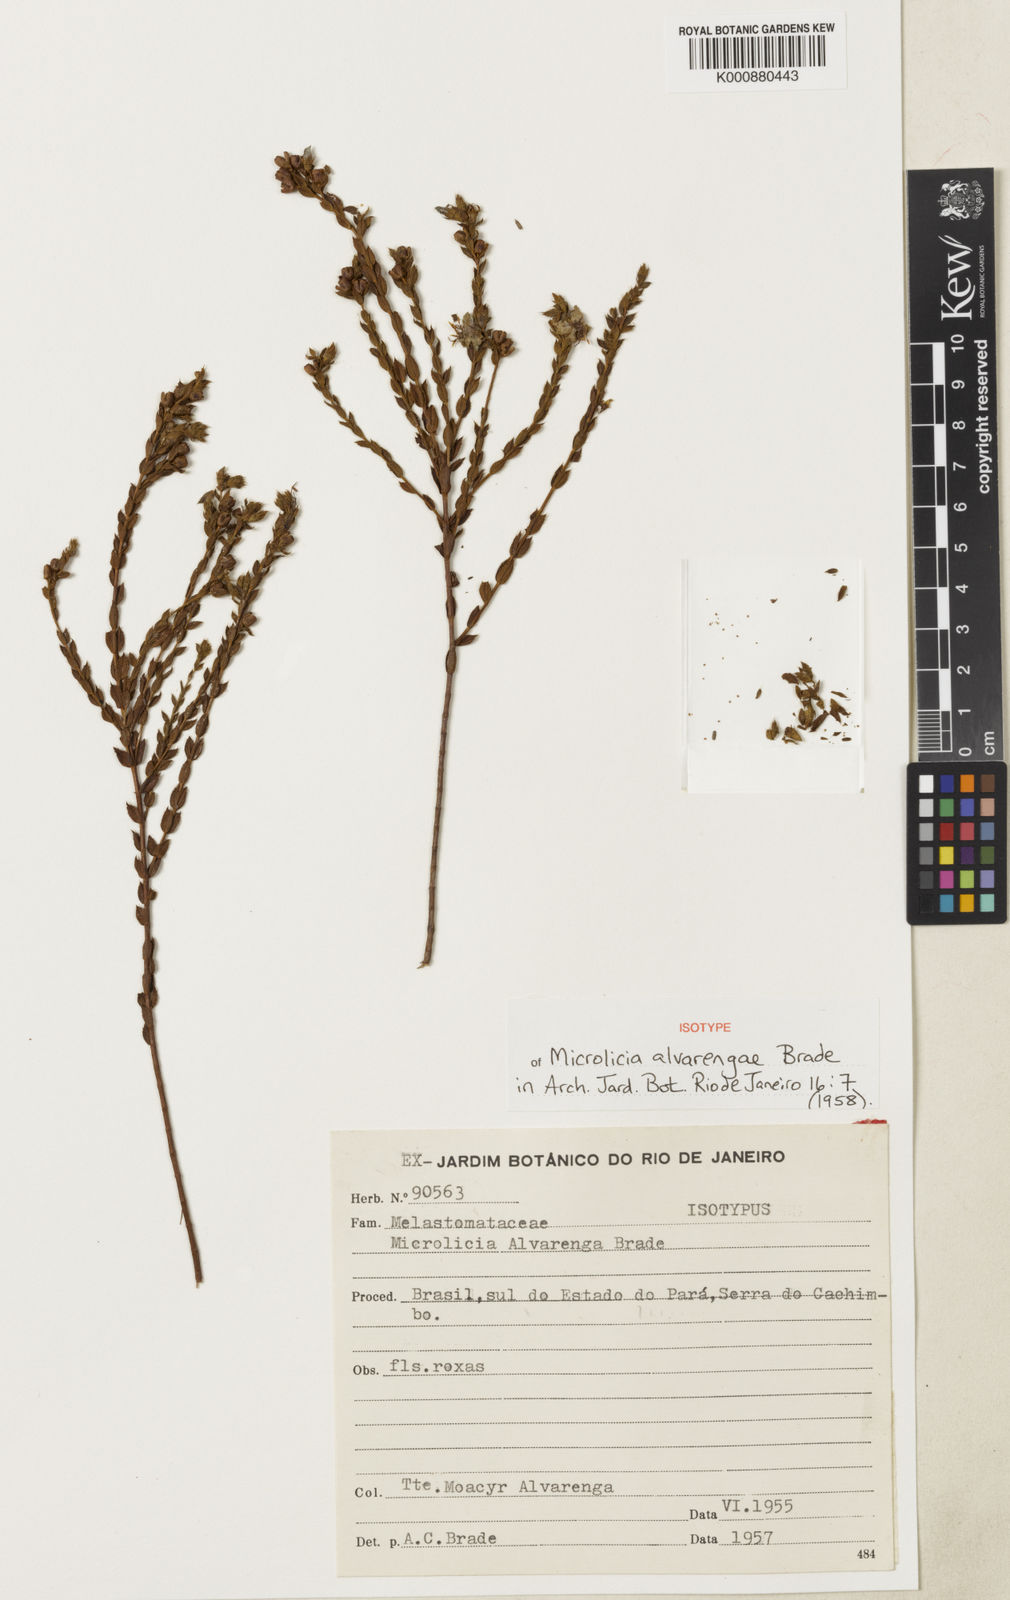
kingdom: Plantae
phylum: Tracheophyta
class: Magnoliopsida
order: Myrtales
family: Melastomataceae
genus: Microlicia
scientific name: Microlicia
